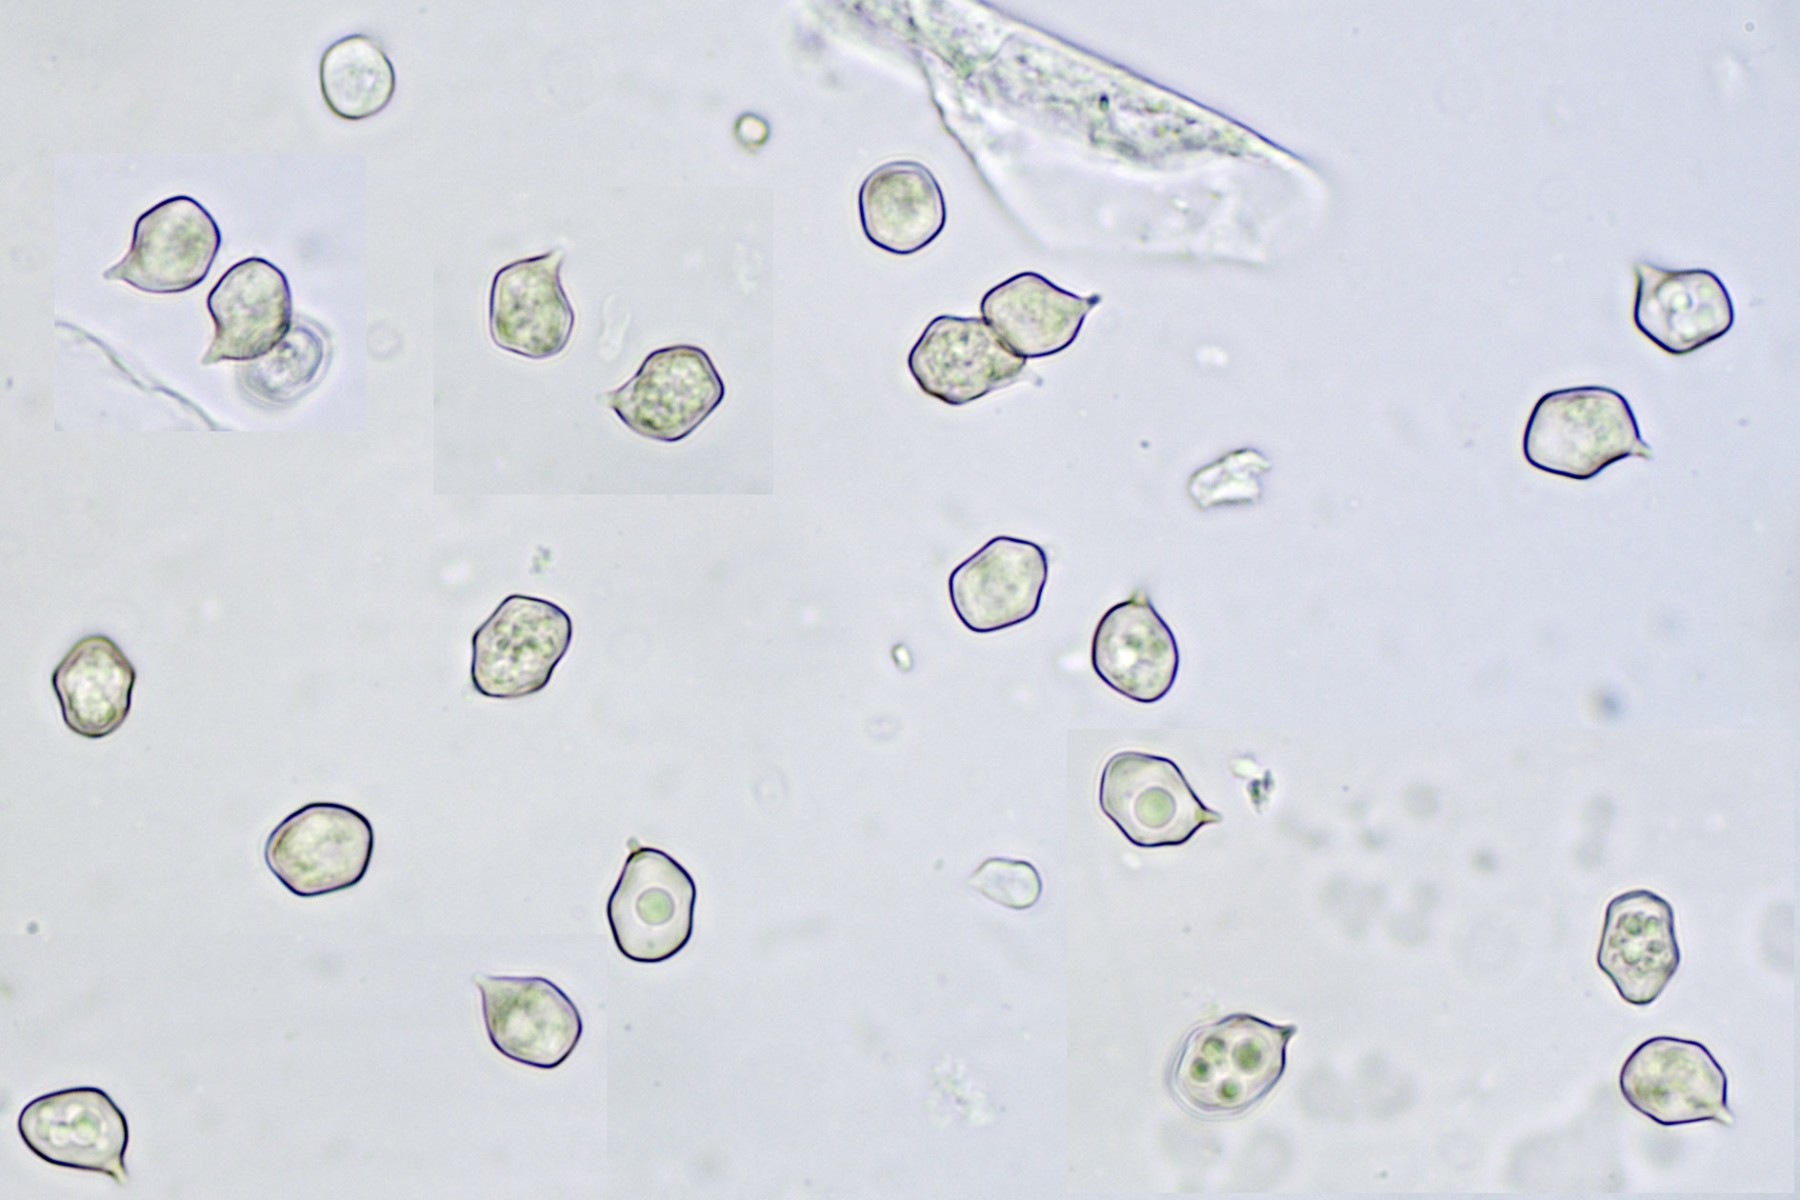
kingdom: Fungi
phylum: Basidiomycota
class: Agaricomycetes
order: Agaricales
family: Entolomataceae
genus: Entoloma
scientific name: Entoloma
